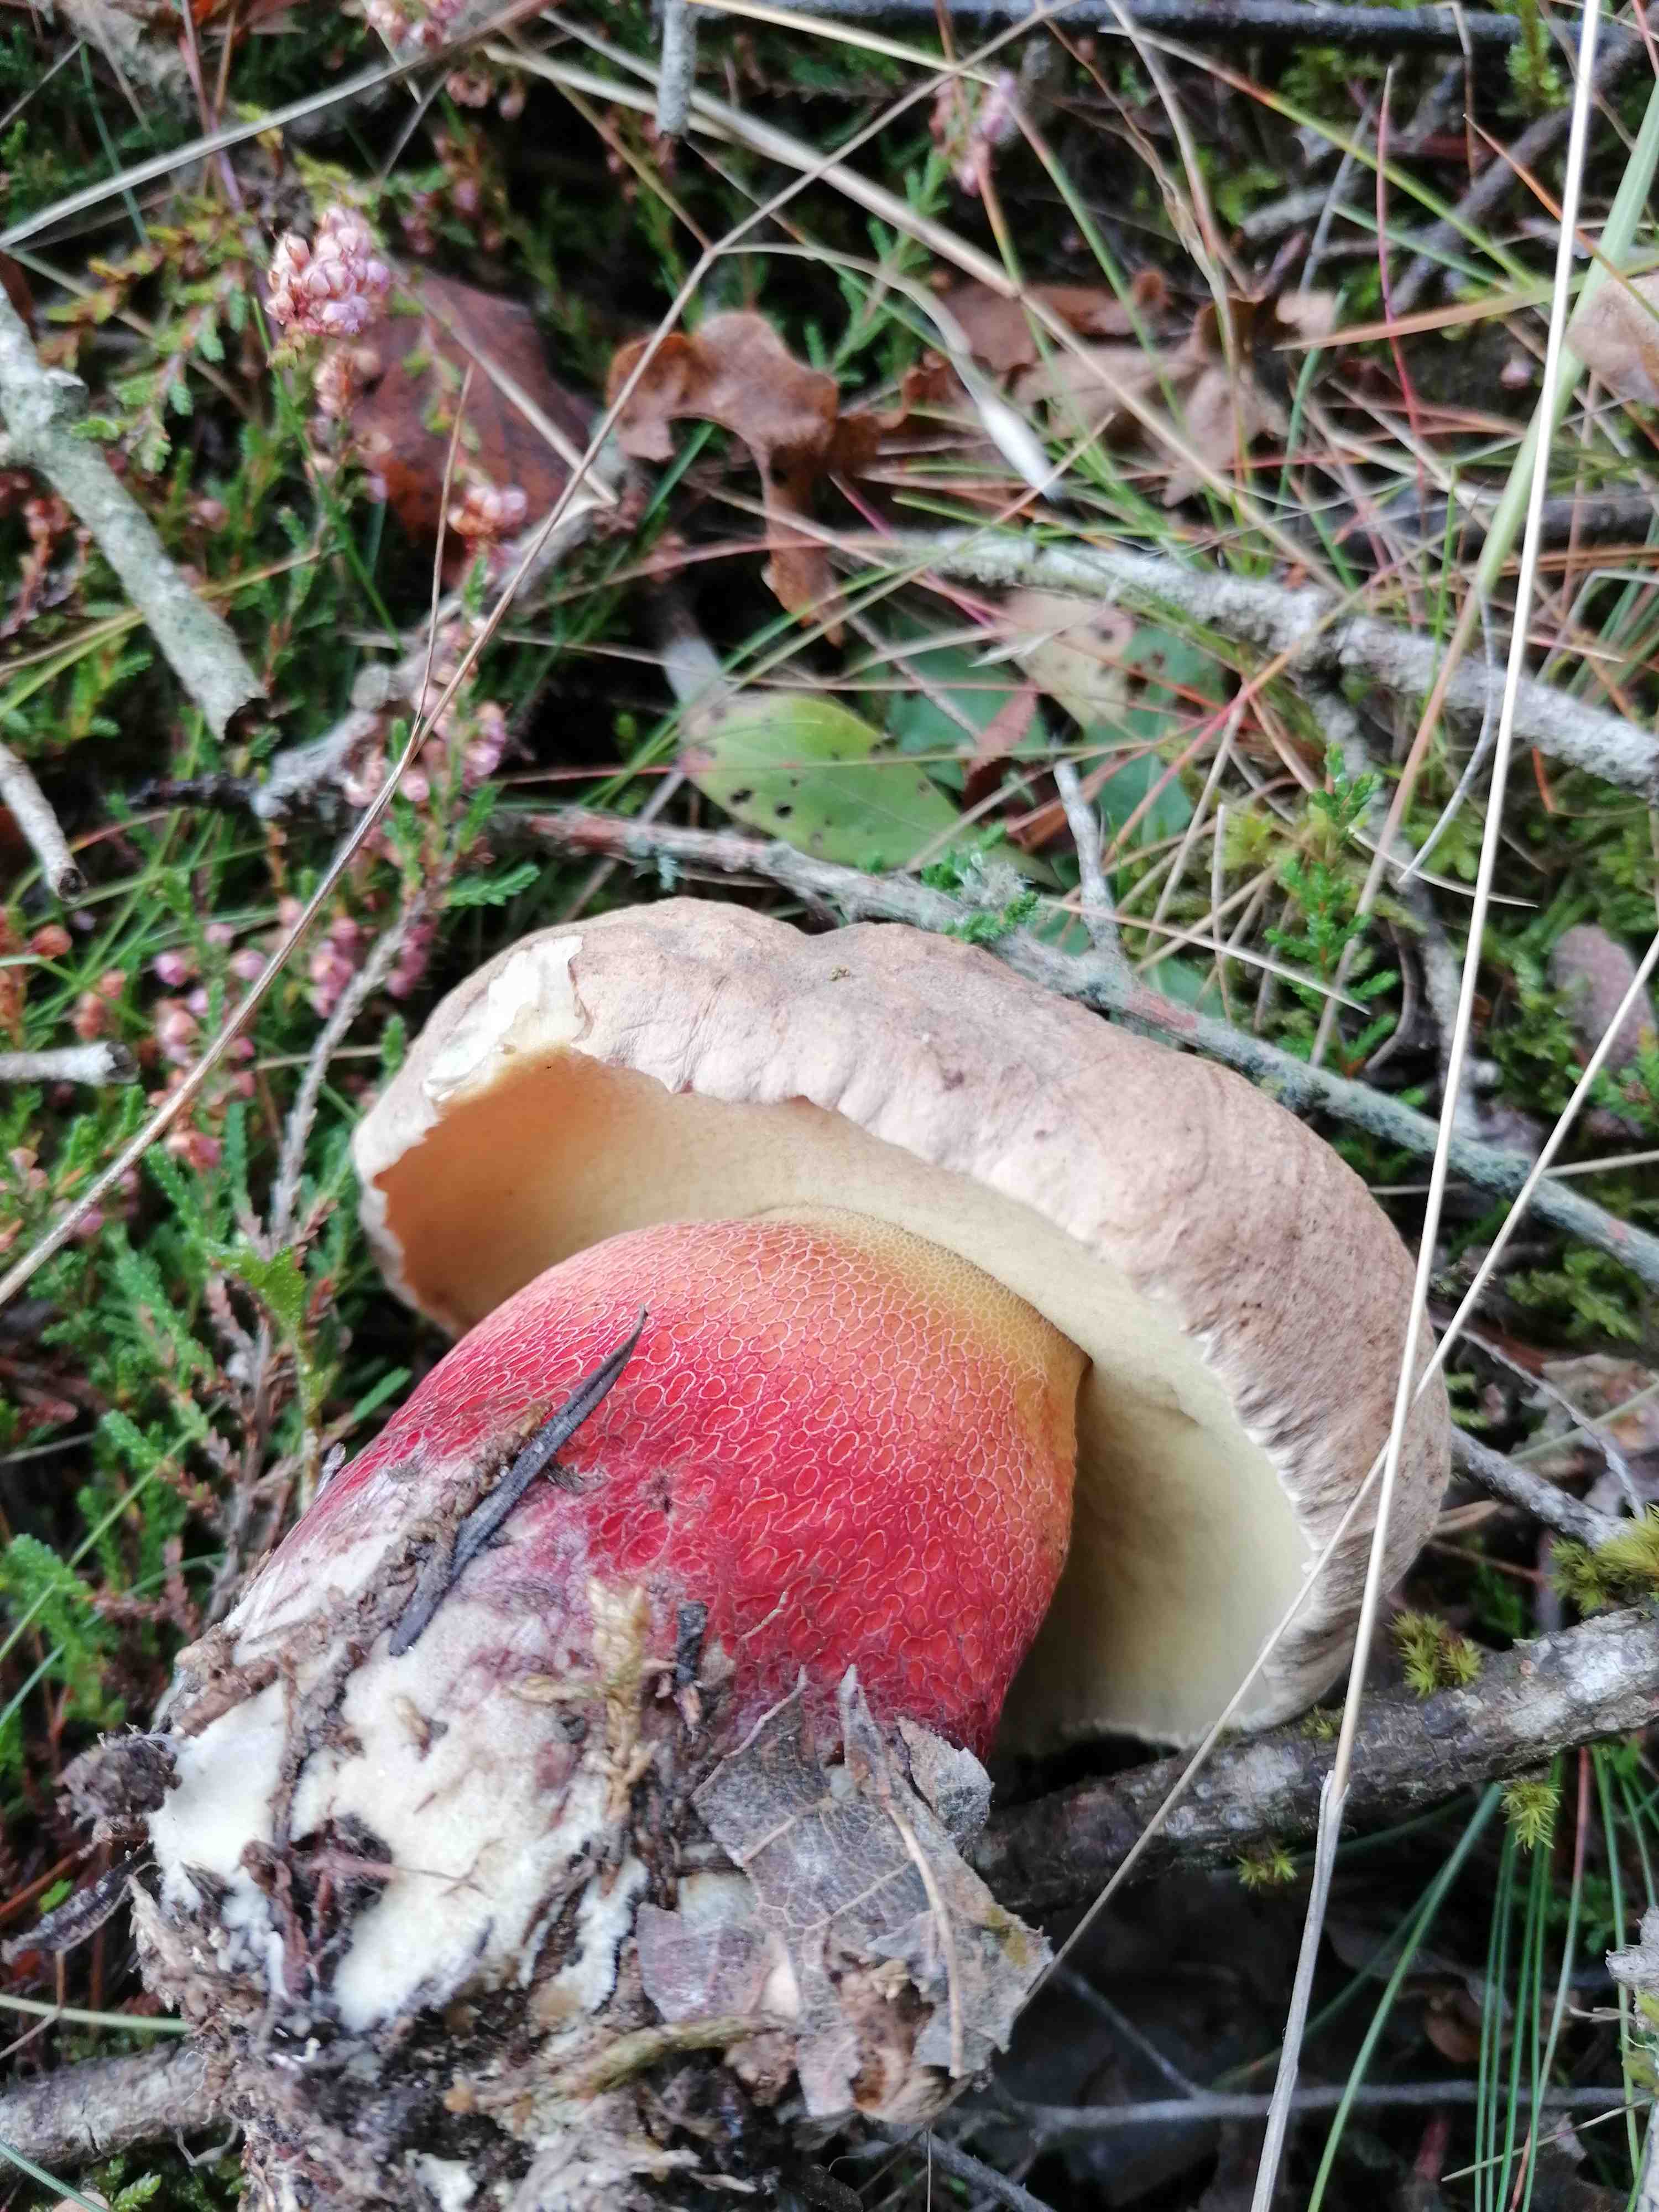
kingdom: Fungi
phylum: Basidiomycota
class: Agaricomycetes
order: Boletales
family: Boletaceae
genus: Caloboletus
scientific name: Caloboletus calopus
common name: skønfodet rørhat
